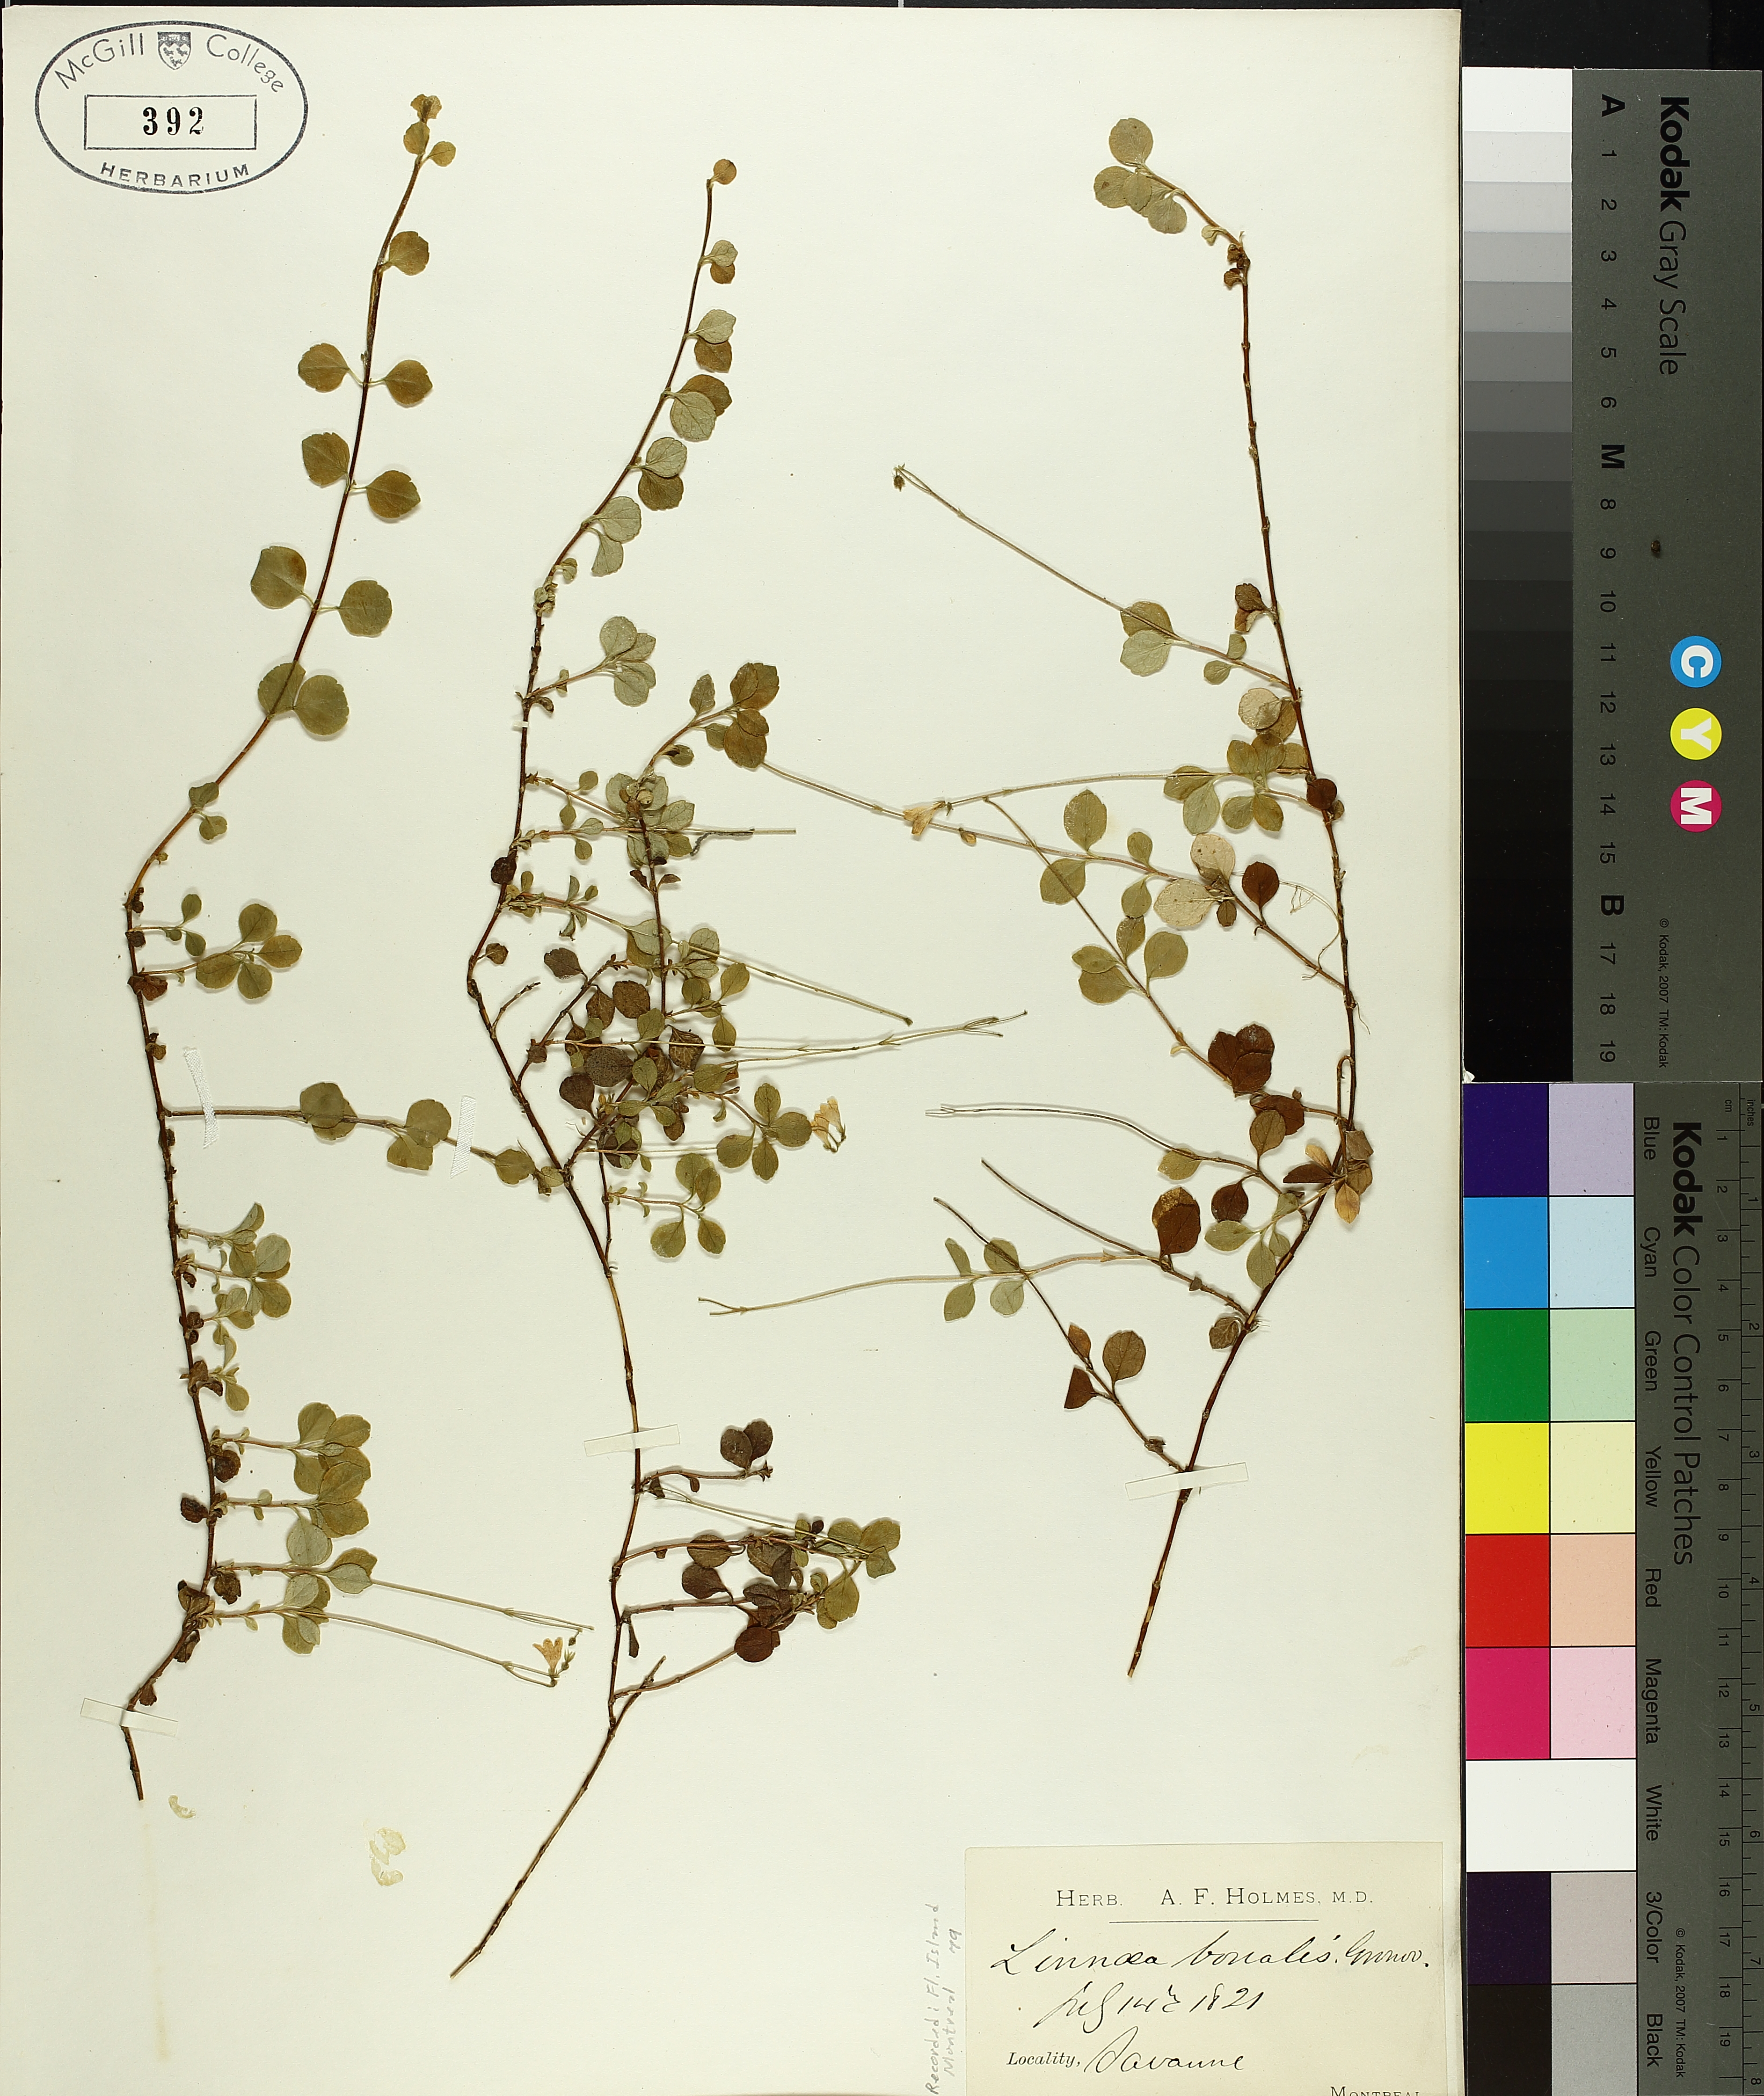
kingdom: Plantae
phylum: Tracheophyta
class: Magnoliopsida
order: Dipsacales
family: Caprifoliaceae
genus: Linnaea
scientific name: Linnaea borealis
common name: Twinflower
